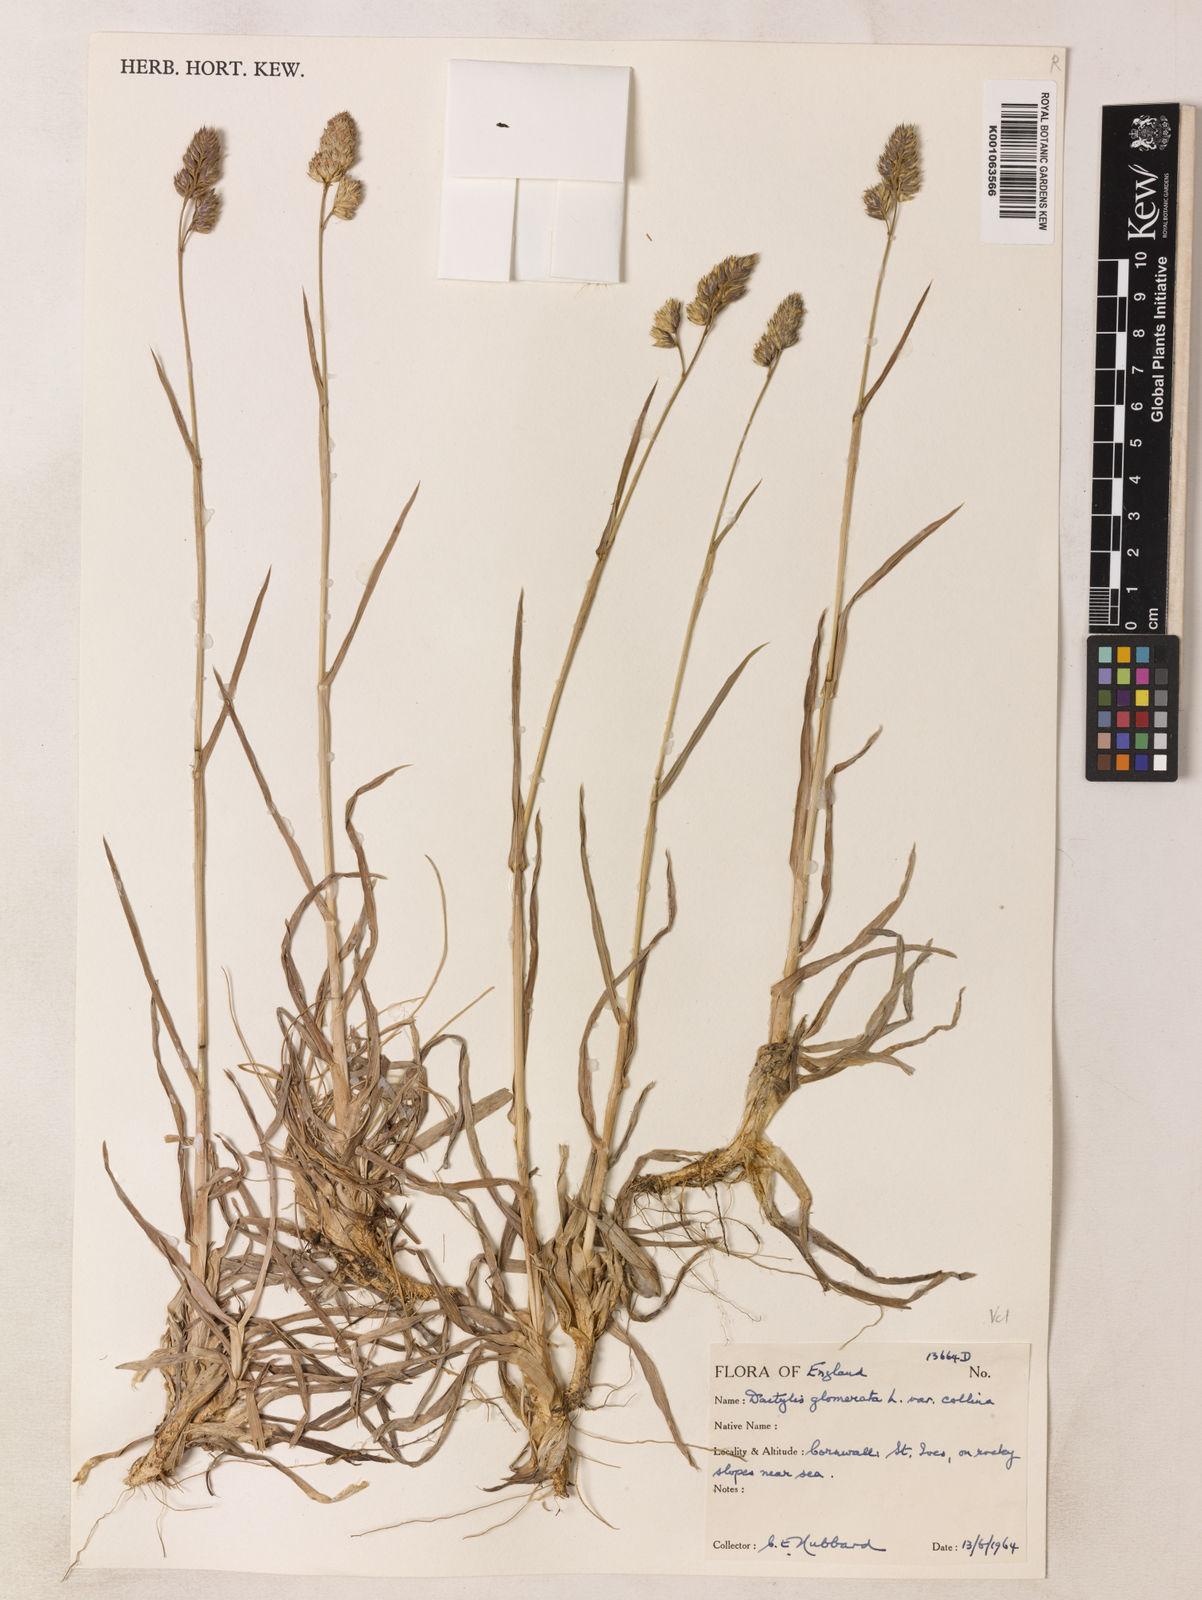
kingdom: Plantae
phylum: Tracheophyta
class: Liliopsida
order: Poales
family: Poaceae
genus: Dactylis
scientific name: Dactylis glomerata
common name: Orchardgrass
